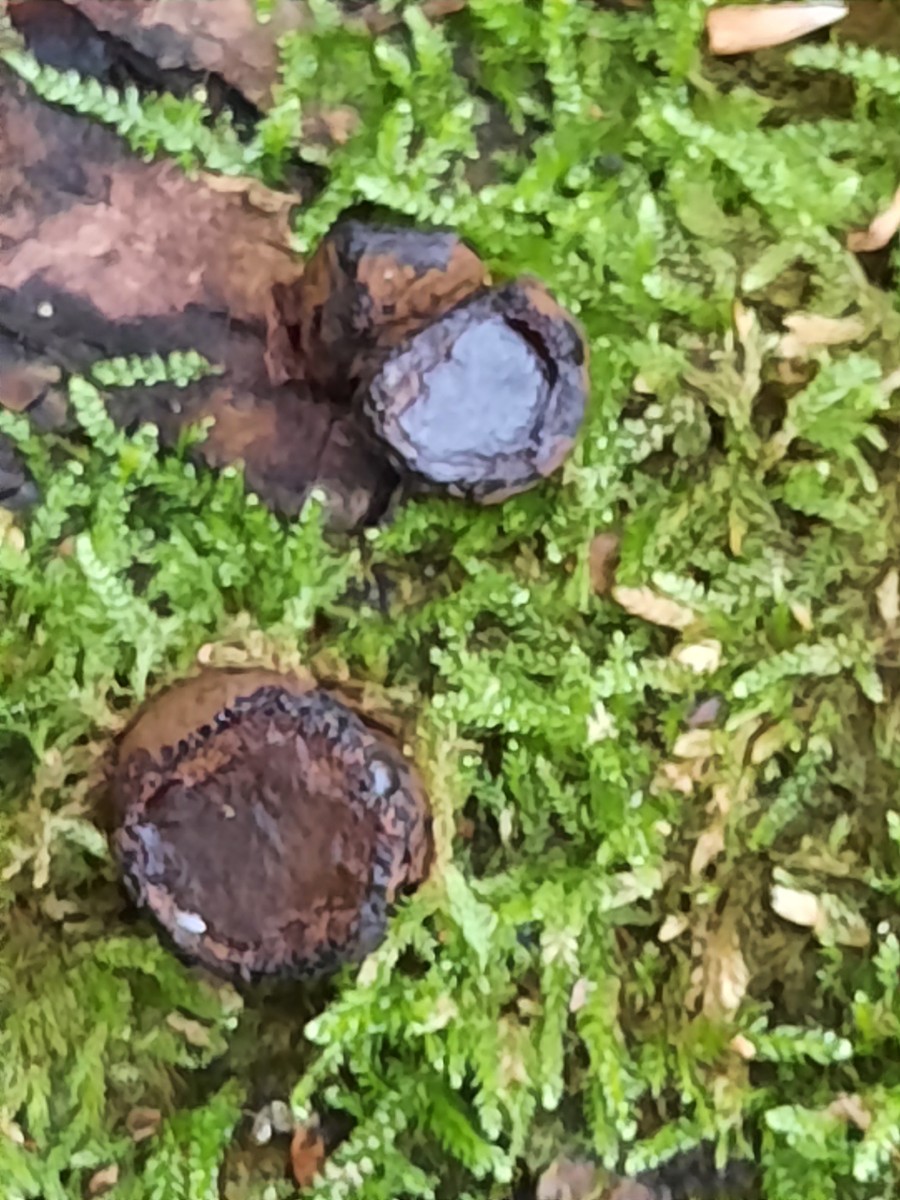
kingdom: Fungi
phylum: Ascomycota
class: Leotiomycetes
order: Phacidiales
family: Phacidiaceae
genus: Bulgaria
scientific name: Bulgaria inquinans
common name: afsmittende topsvamp
